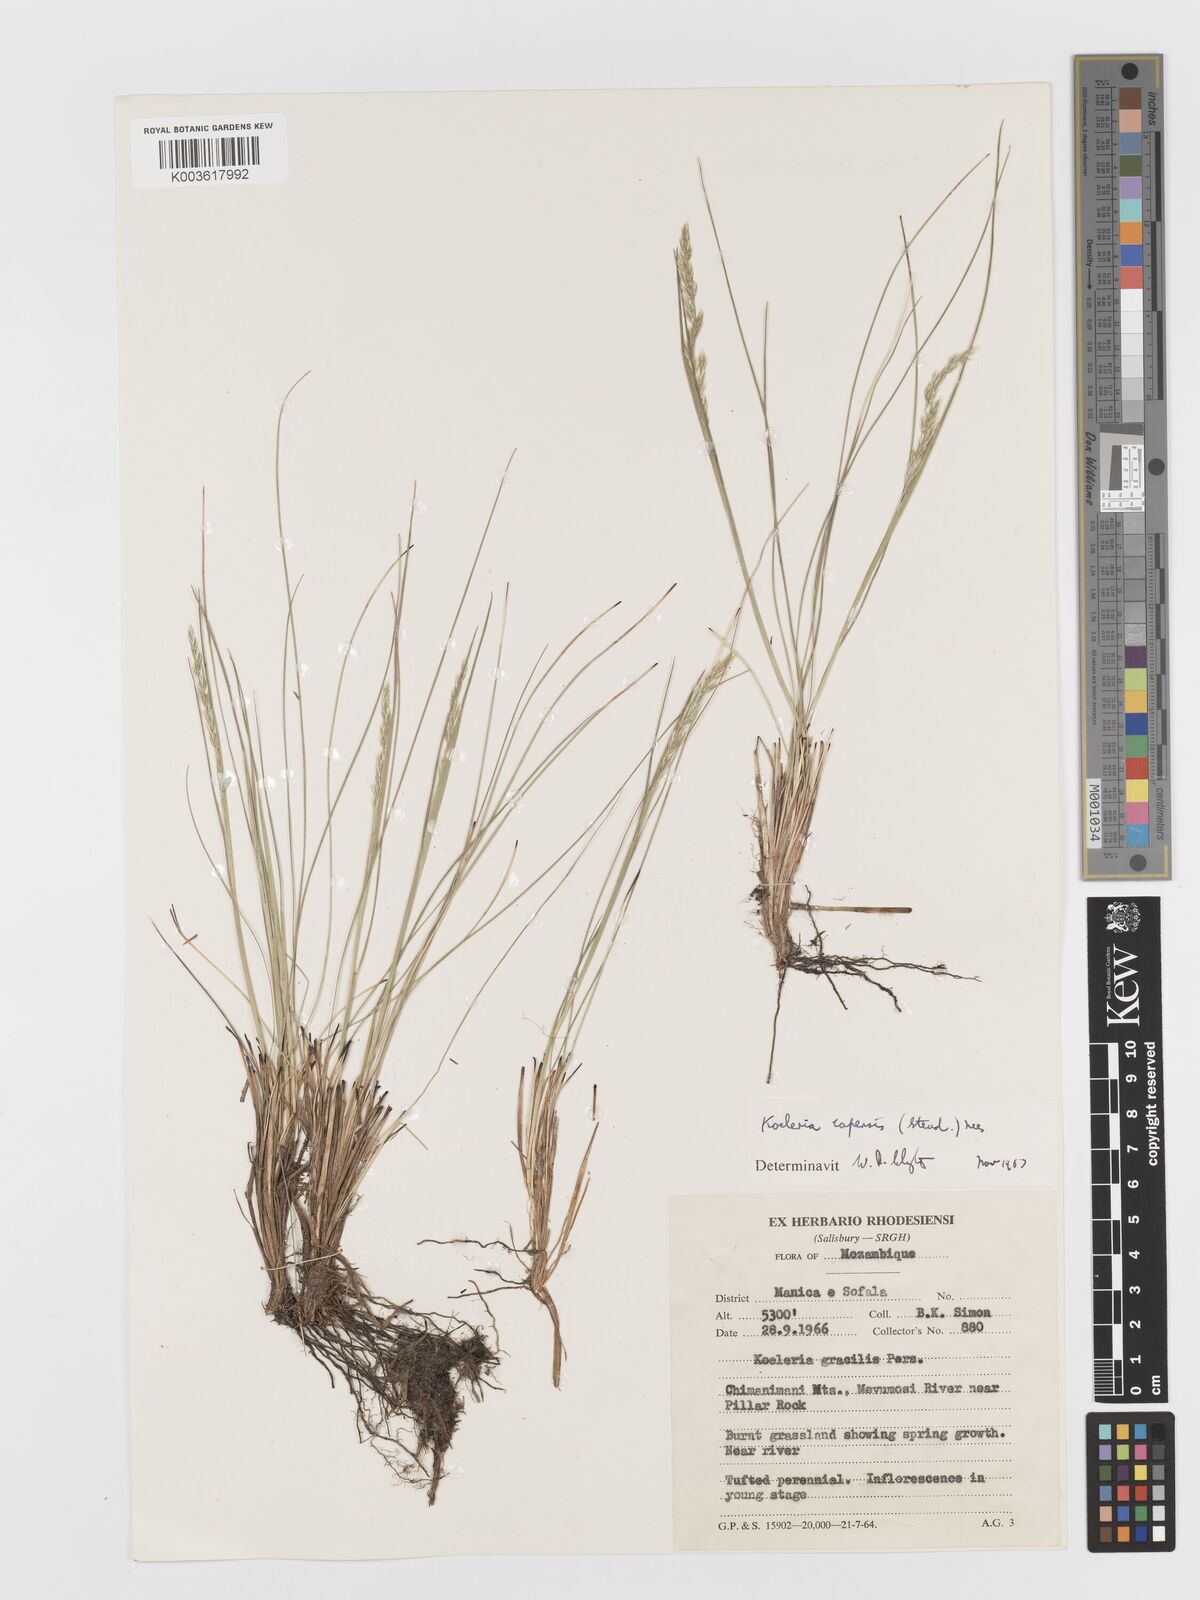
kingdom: Plantae
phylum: Tracheophyta
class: Liliopsida
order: Poales
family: Poaceae
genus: Koeleria
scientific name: Koeleria capensis
